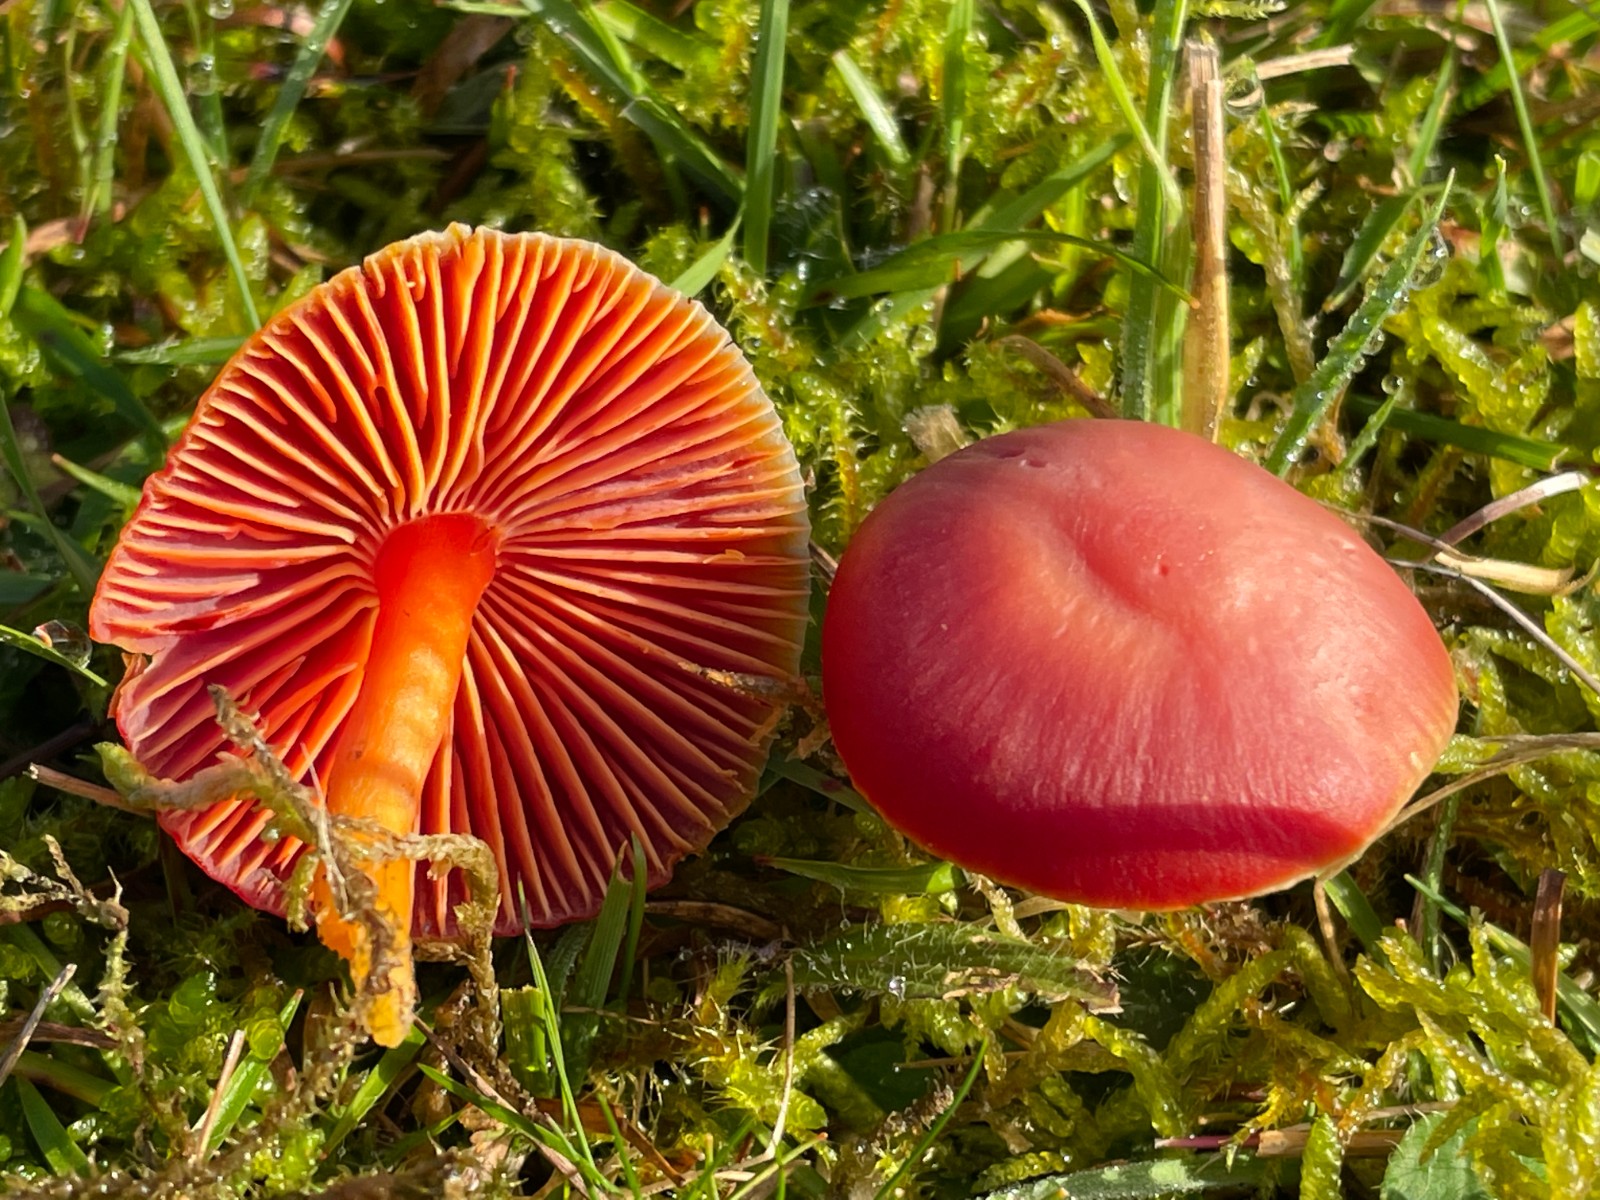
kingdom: Fungi
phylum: Basidiomycota
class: Agaricomycetes
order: Agaricales
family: Hygrophoraceae
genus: Hygrocybe
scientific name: Hygrocybe coccinea
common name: cinnober-vokshat
